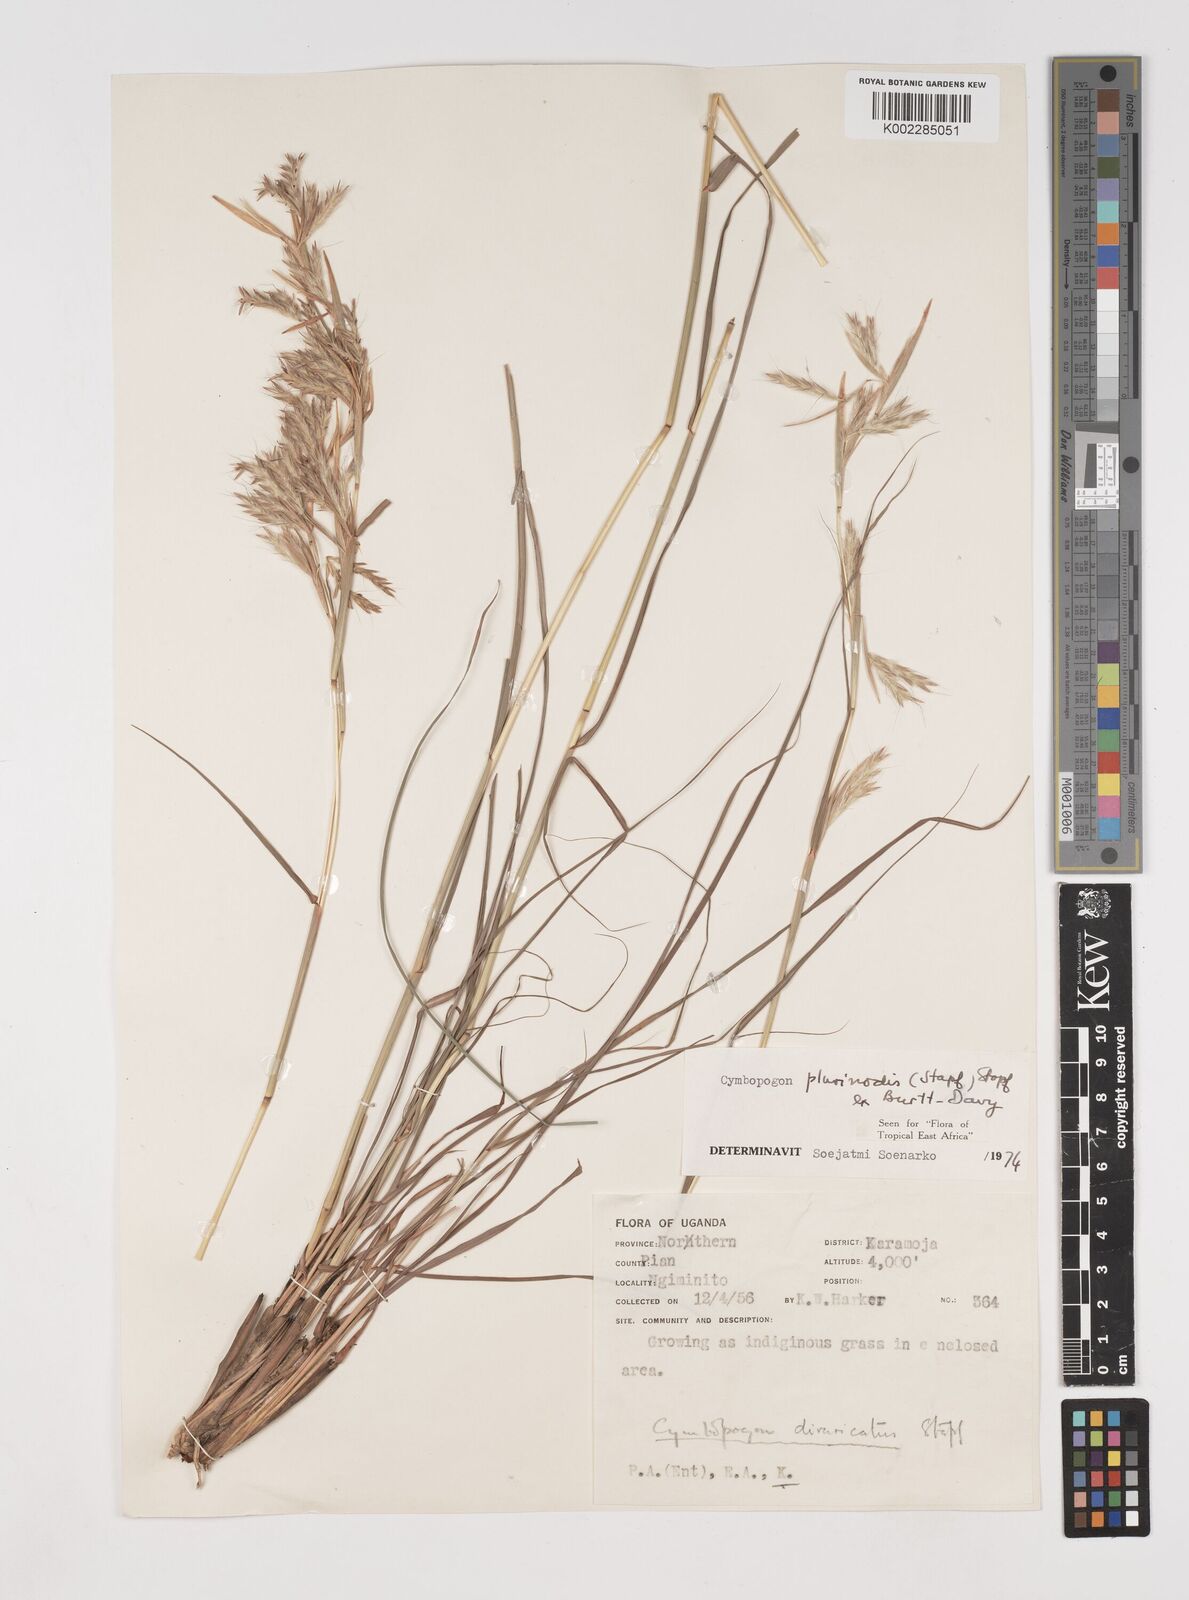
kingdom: Plantae
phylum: Tracheophyta
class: Liliopsida
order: Poales
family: Poaceae
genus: Cymbopogon
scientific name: Cymbopogon pospischilii
